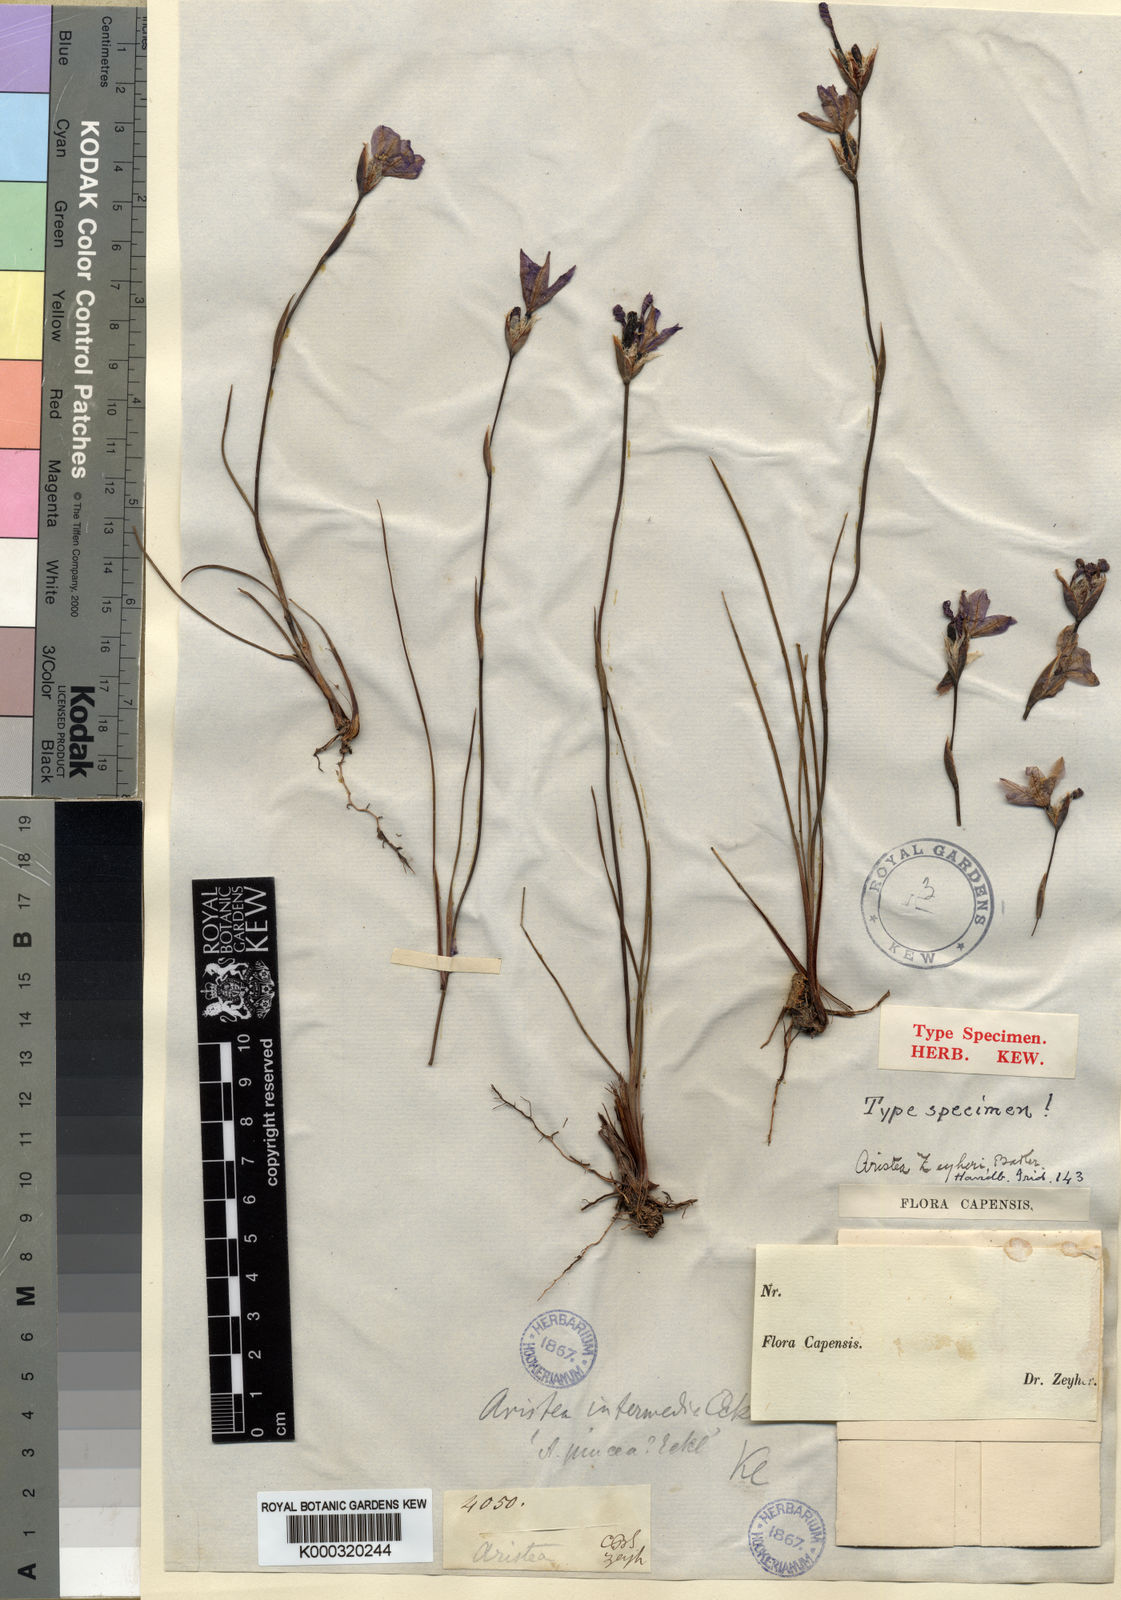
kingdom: Plantae
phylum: Tracheophyta
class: Liliopsida
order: Asparagales
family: Iridaceae
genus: Aristea
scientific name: Aristea zeyheri
